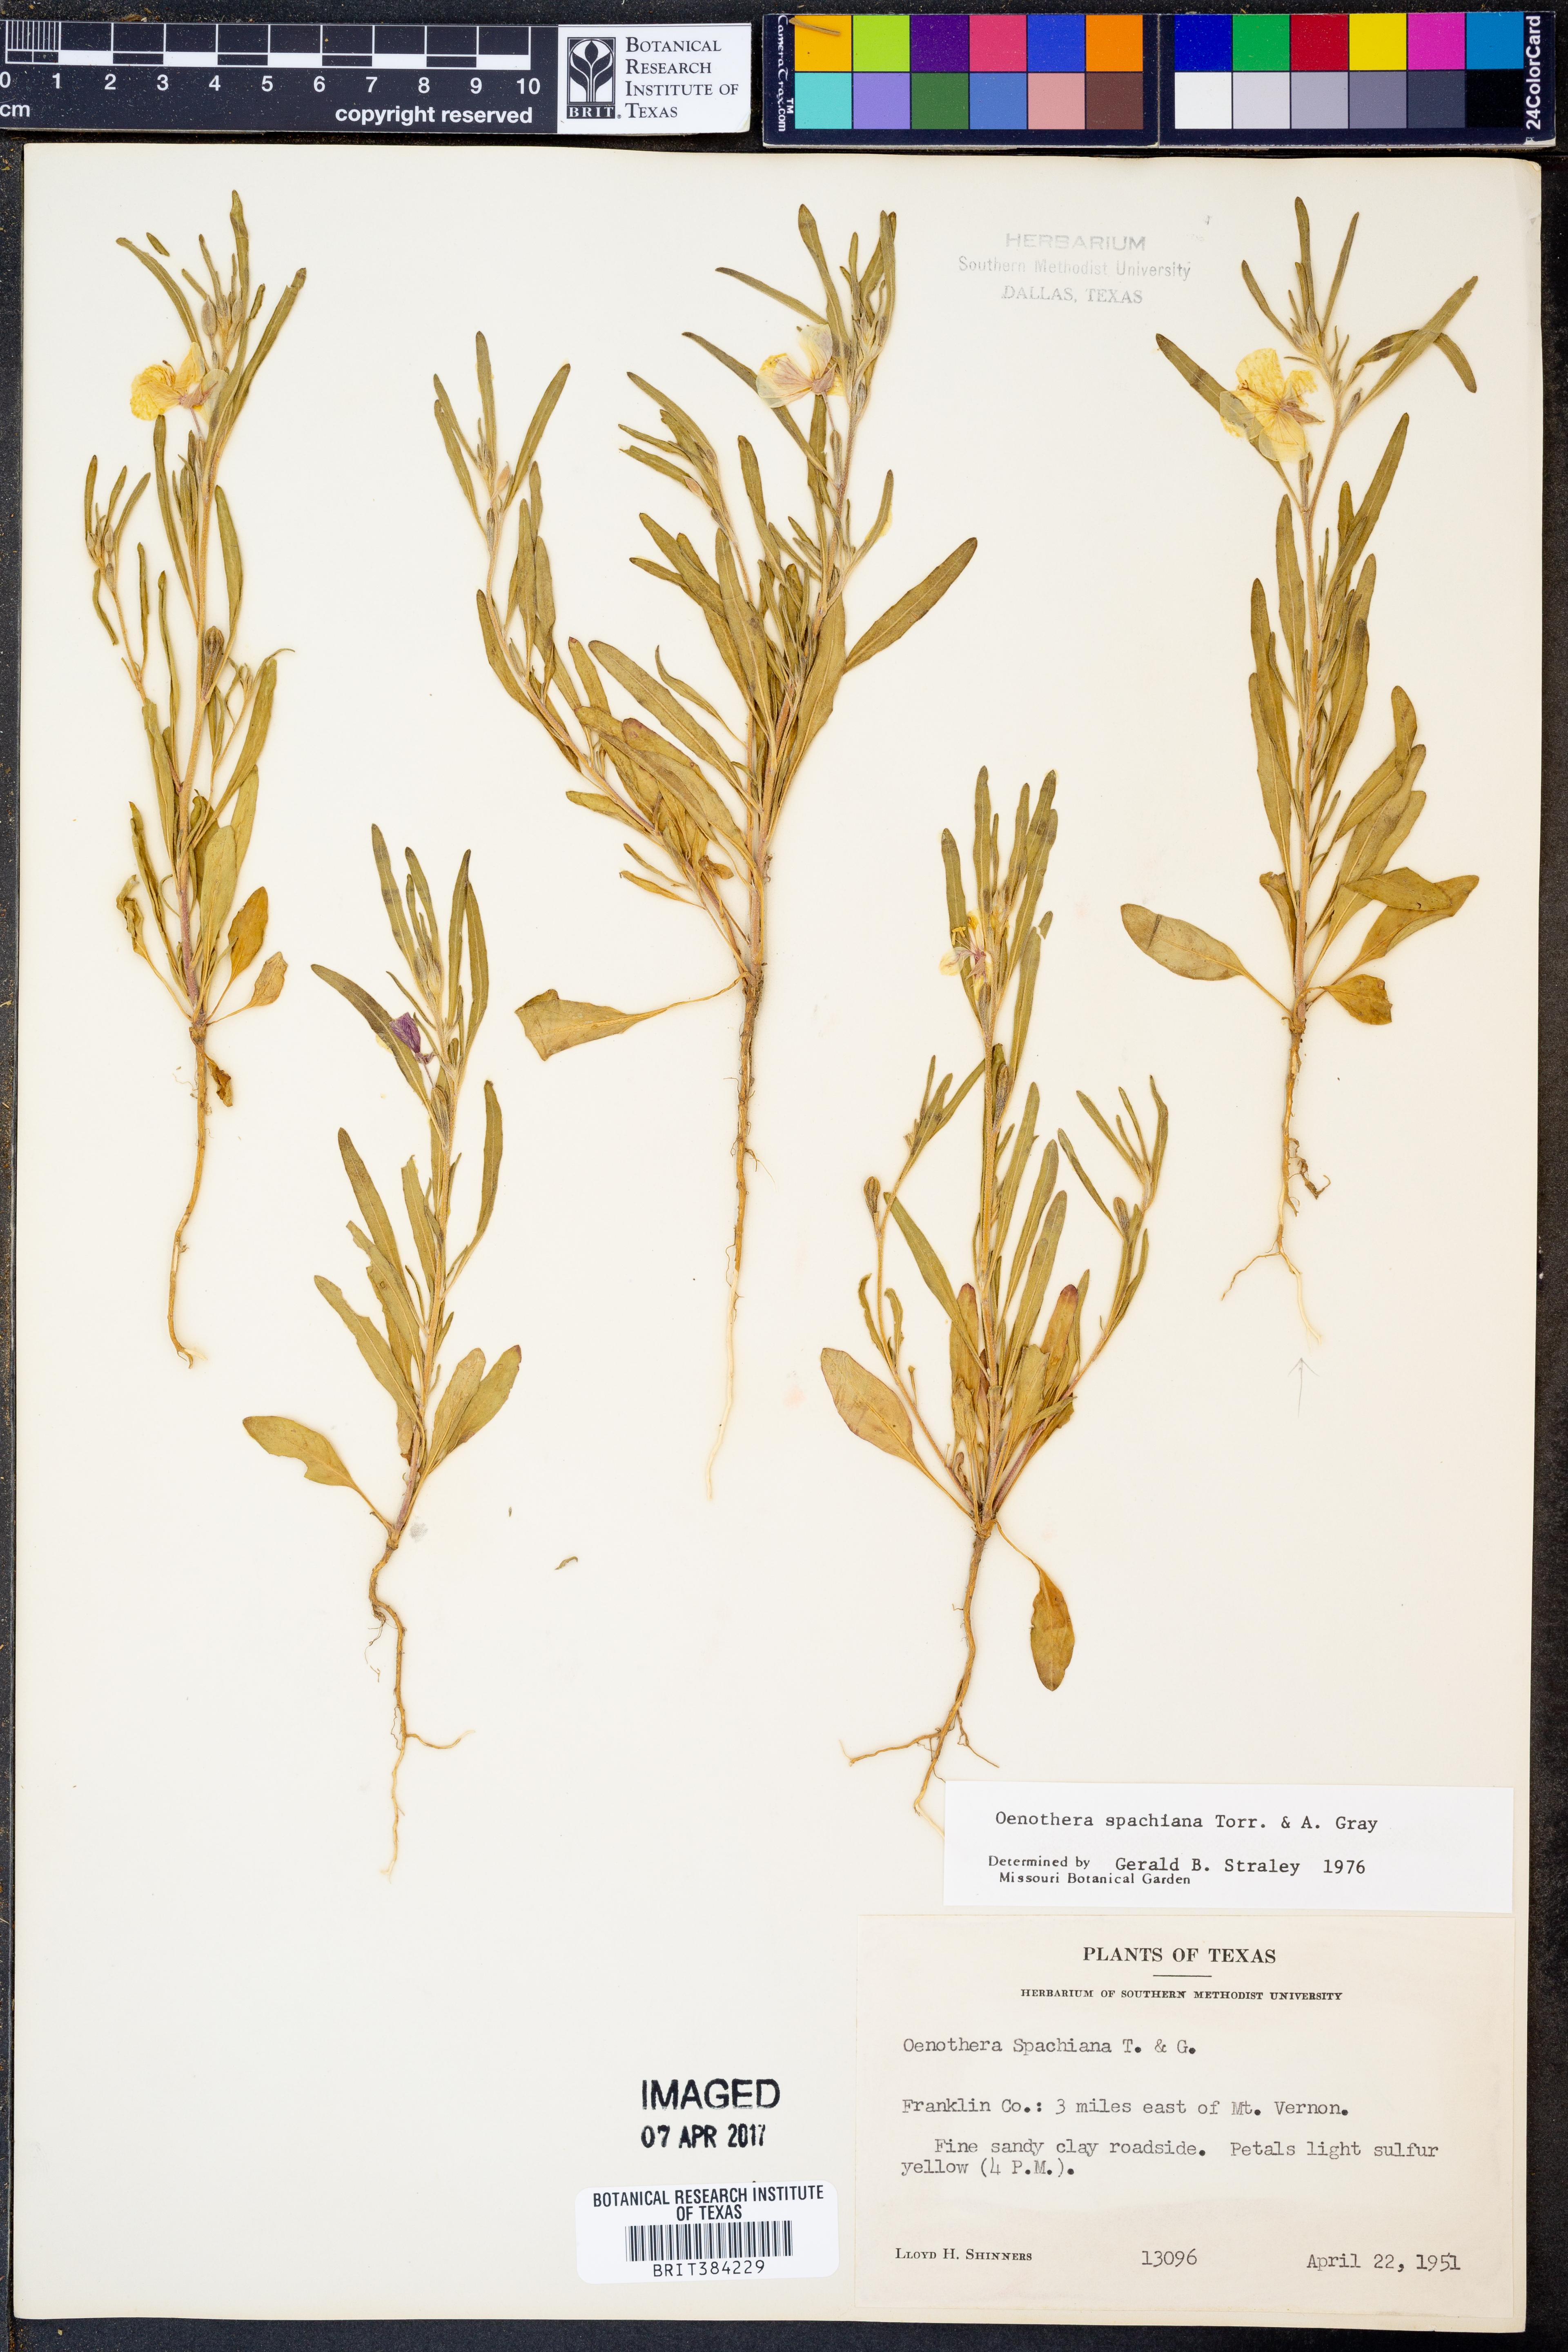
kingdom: Plantae
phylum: Tracheophyta
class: Magnoliopsida
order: Myrtales
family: Onagraceae
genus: Oenothera
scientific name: Oenothera spachiana
